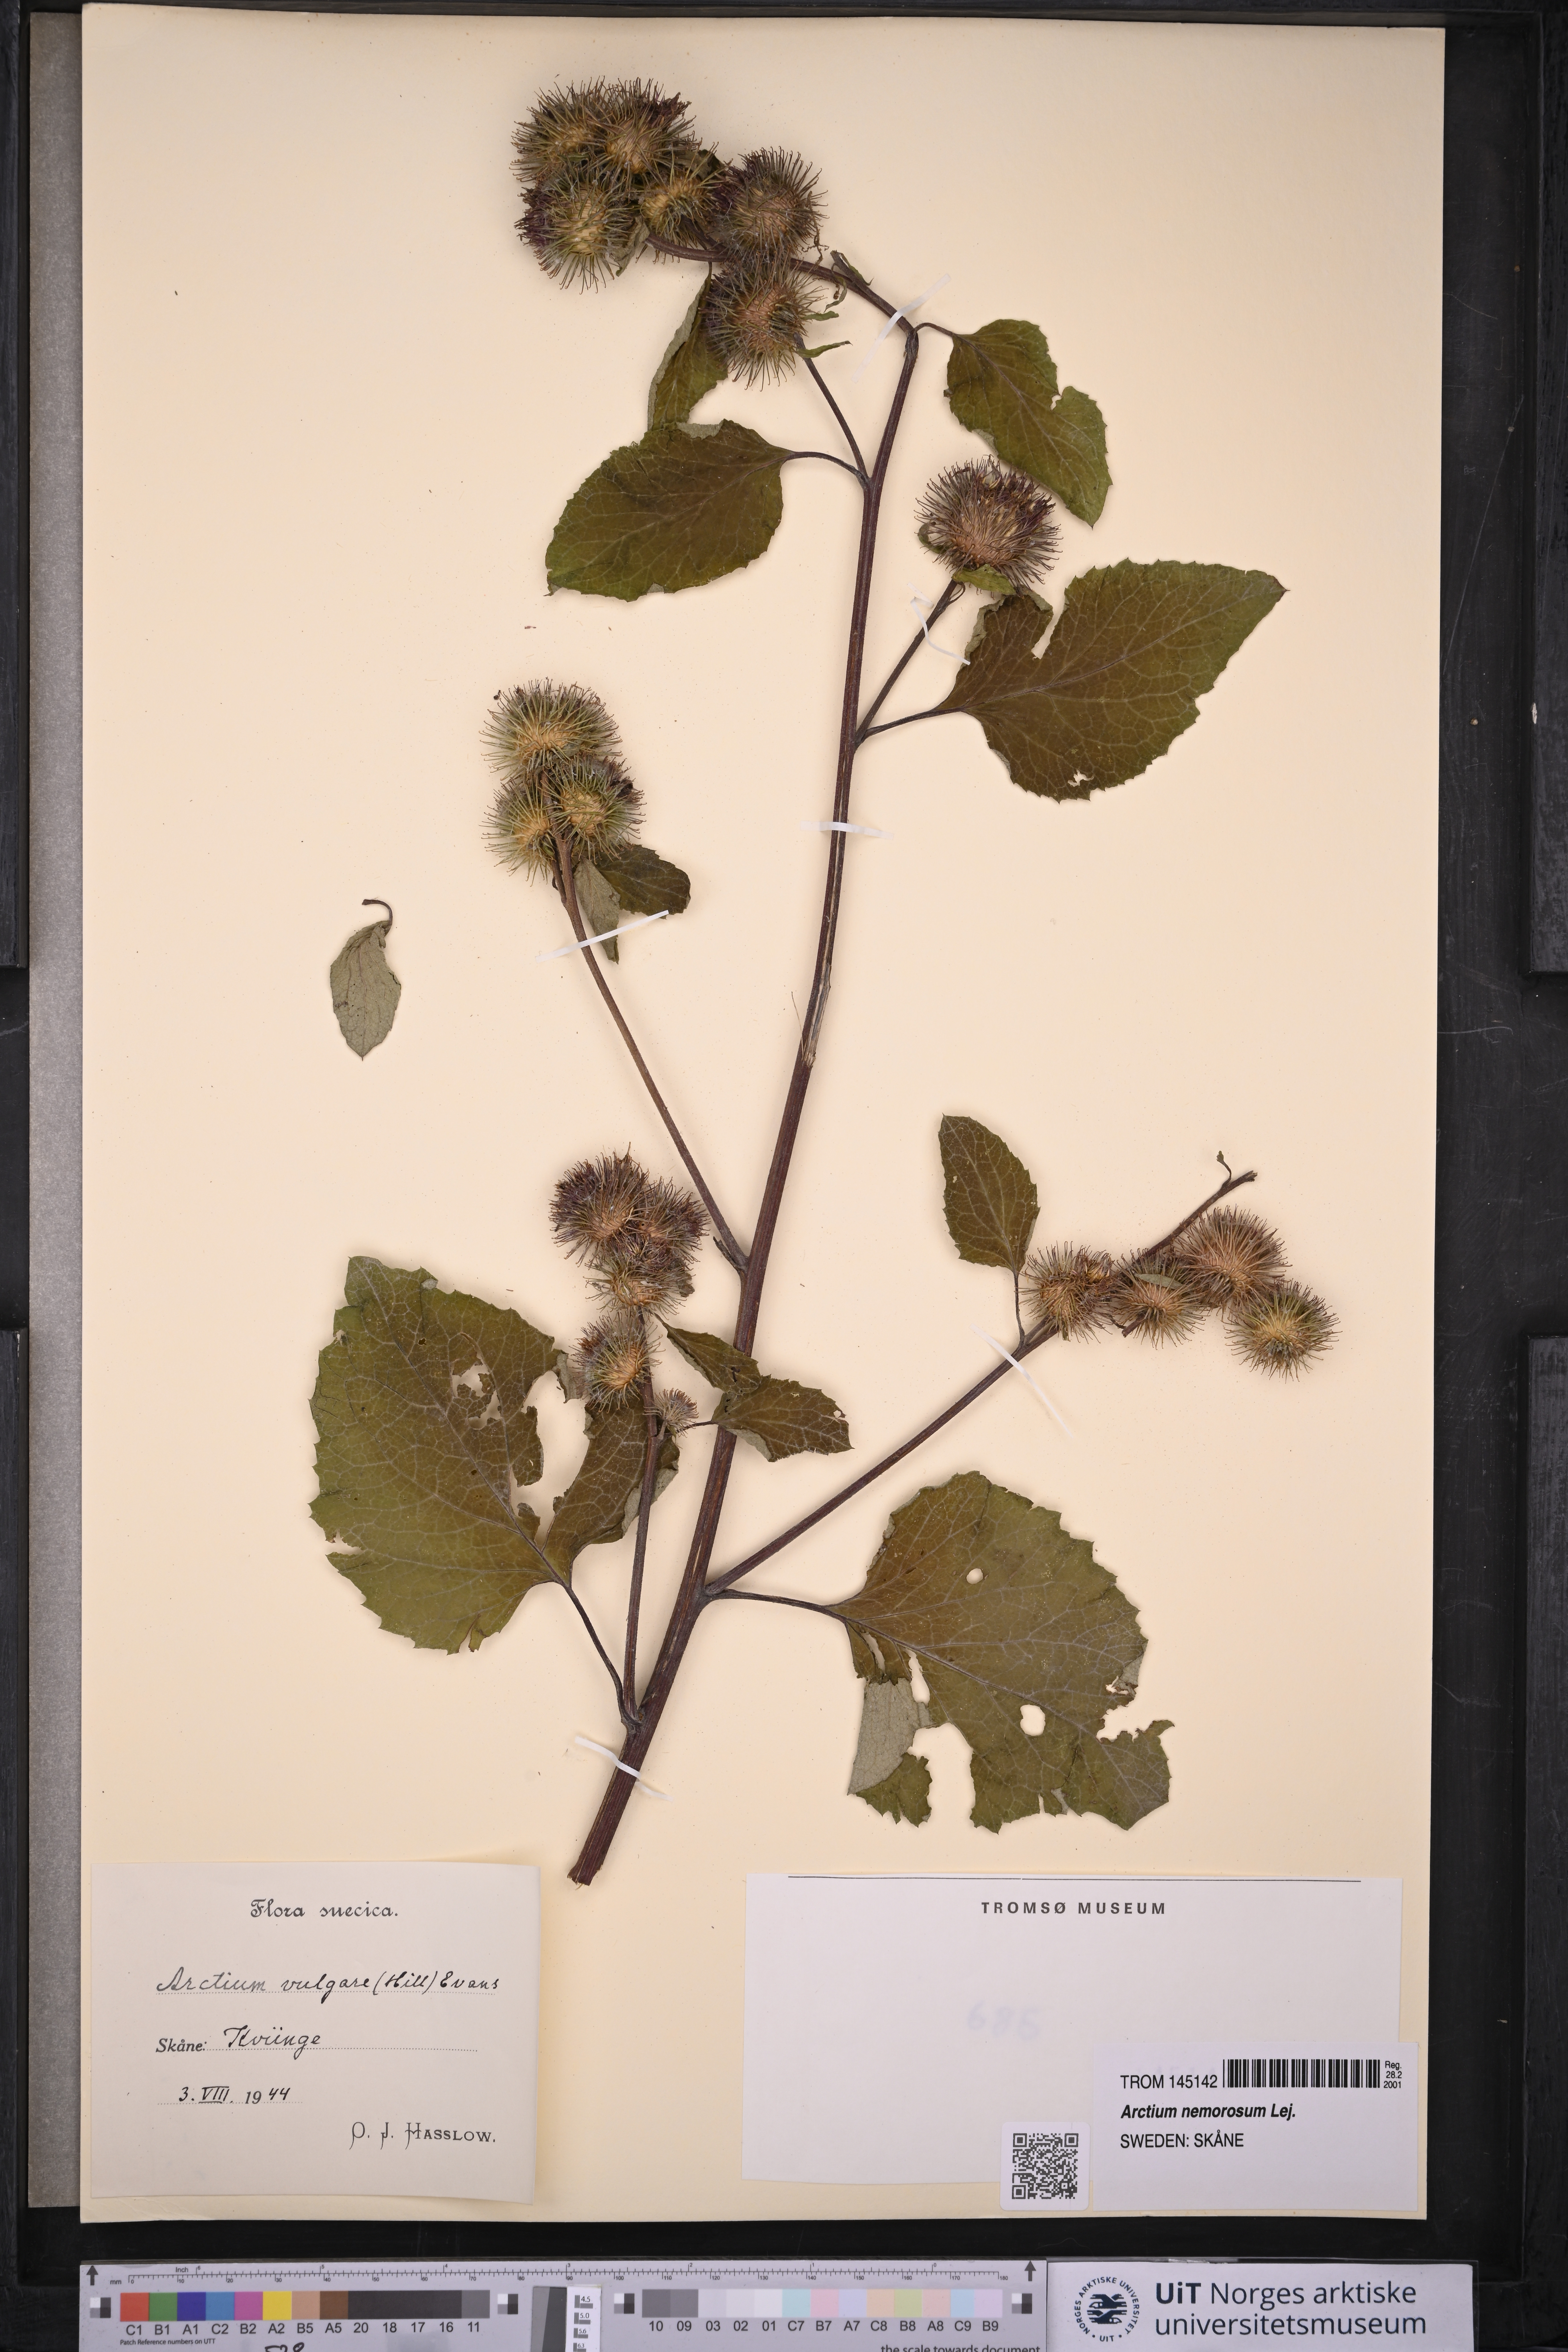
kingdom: Plantae
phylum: Tracheophyta
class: Magnoliopsida
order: Asterales
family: Asteraceae
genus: Arctium
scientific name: Arctium lappa
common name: Greater burdock
